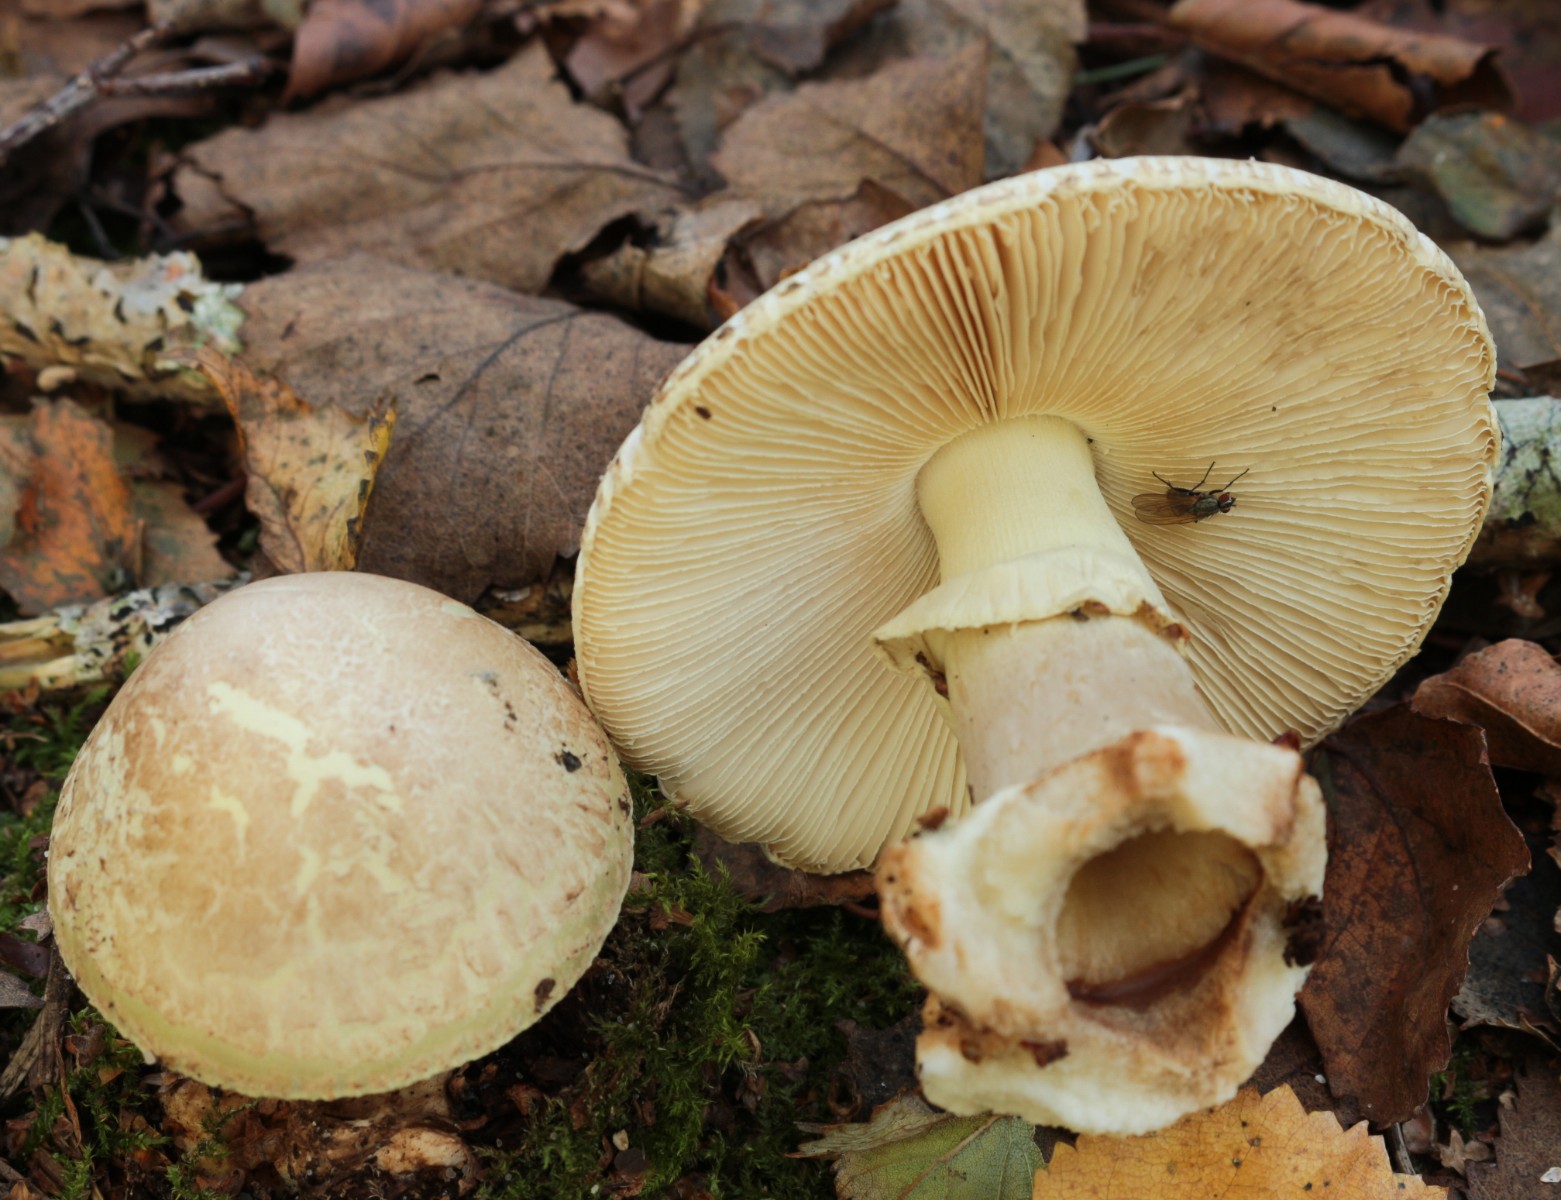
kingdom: Fungi
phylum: Basidiomycota
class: Agaricomycetes
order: Agaricales
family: Amanitaceae
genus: Amanita
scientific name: Amanita citrina
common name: kugleknoldet fluesvamp
